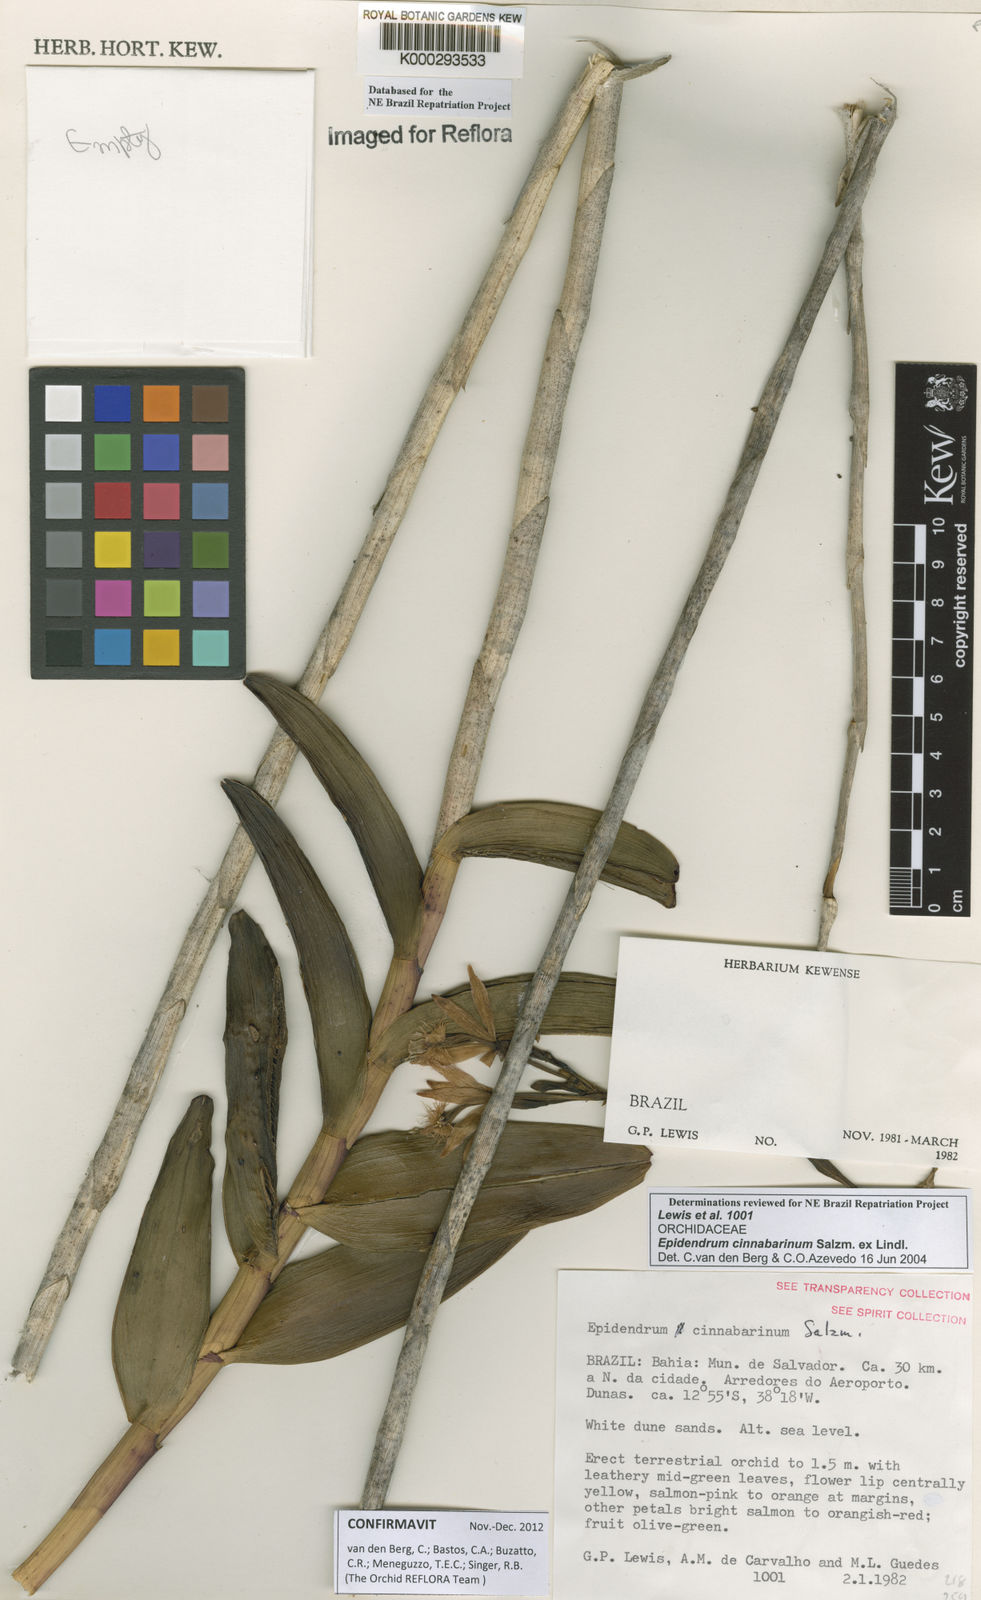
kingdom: Plantae
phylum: Tracheophyta
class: Liliopsida
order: Asparagales
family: Orchidaceae
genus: Epidendrum
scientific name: Epidendrum cinnabarinum
